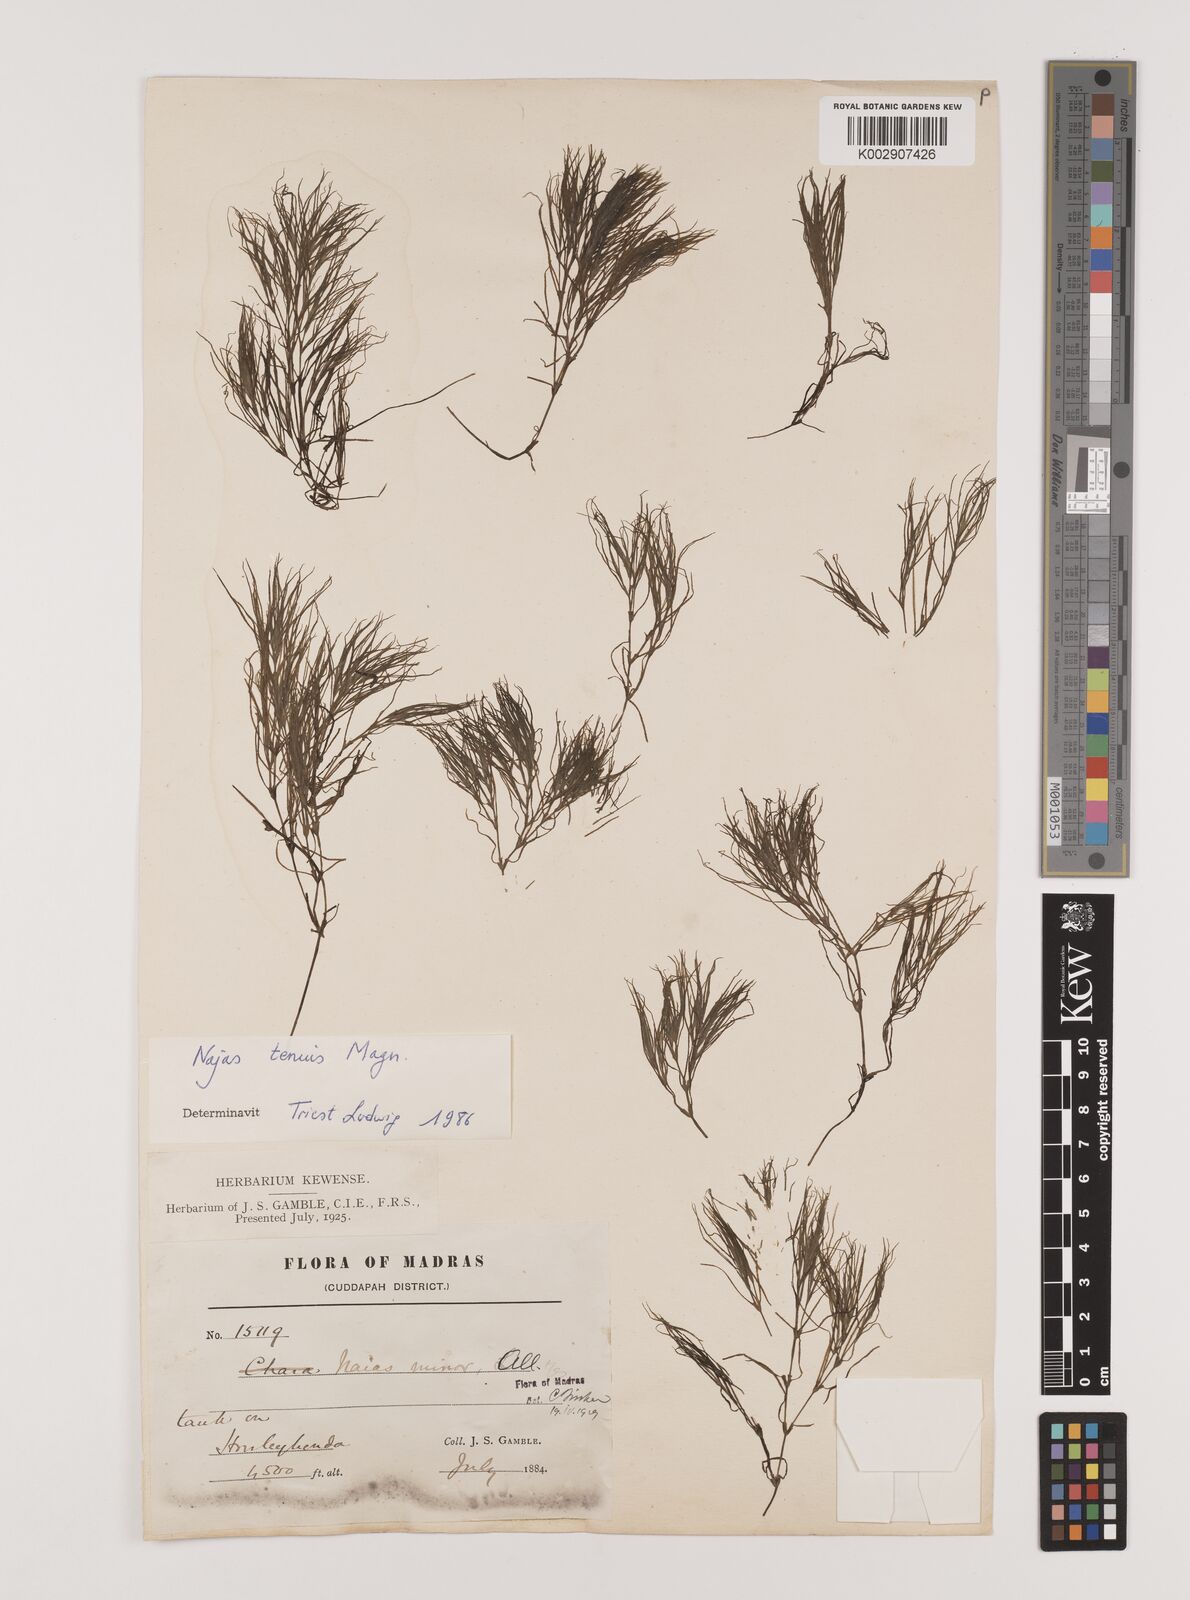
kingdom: Plantae
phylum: Tracheophyta
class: Liliopsida
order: Alismatales
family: Hydrocharitaceae
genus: Najas
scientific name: Najas indica
